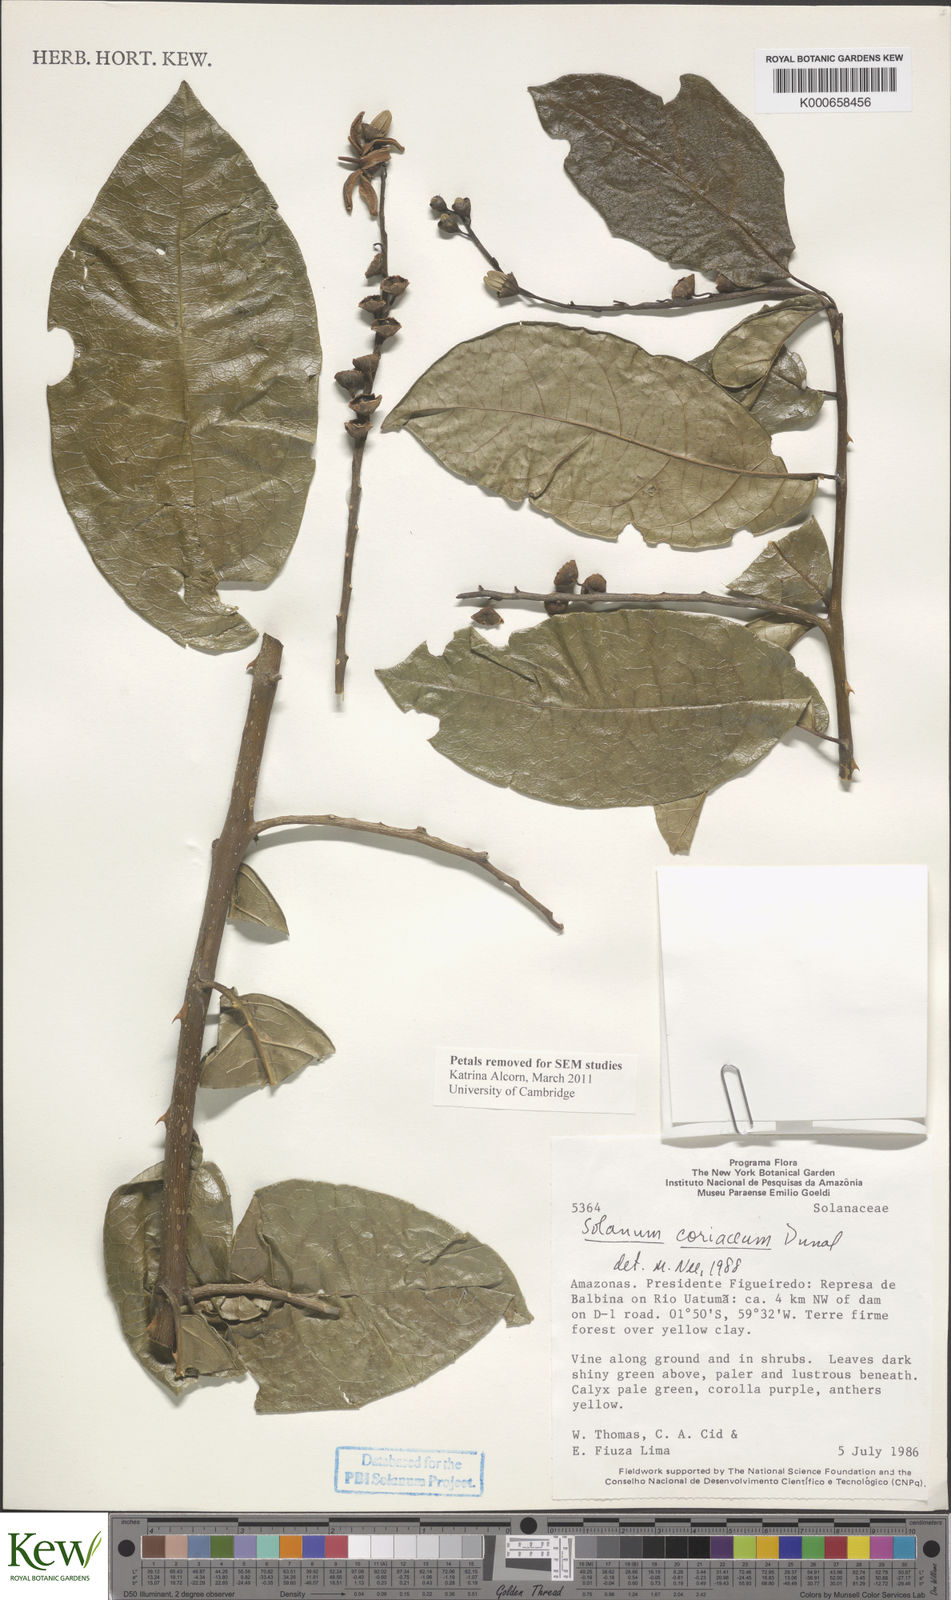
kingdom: Plantae
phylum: Tracheophyta
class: Magnoliopsida
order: Solanales
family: Solanaceae
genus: Solanum
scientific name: Solanum coriaceum
